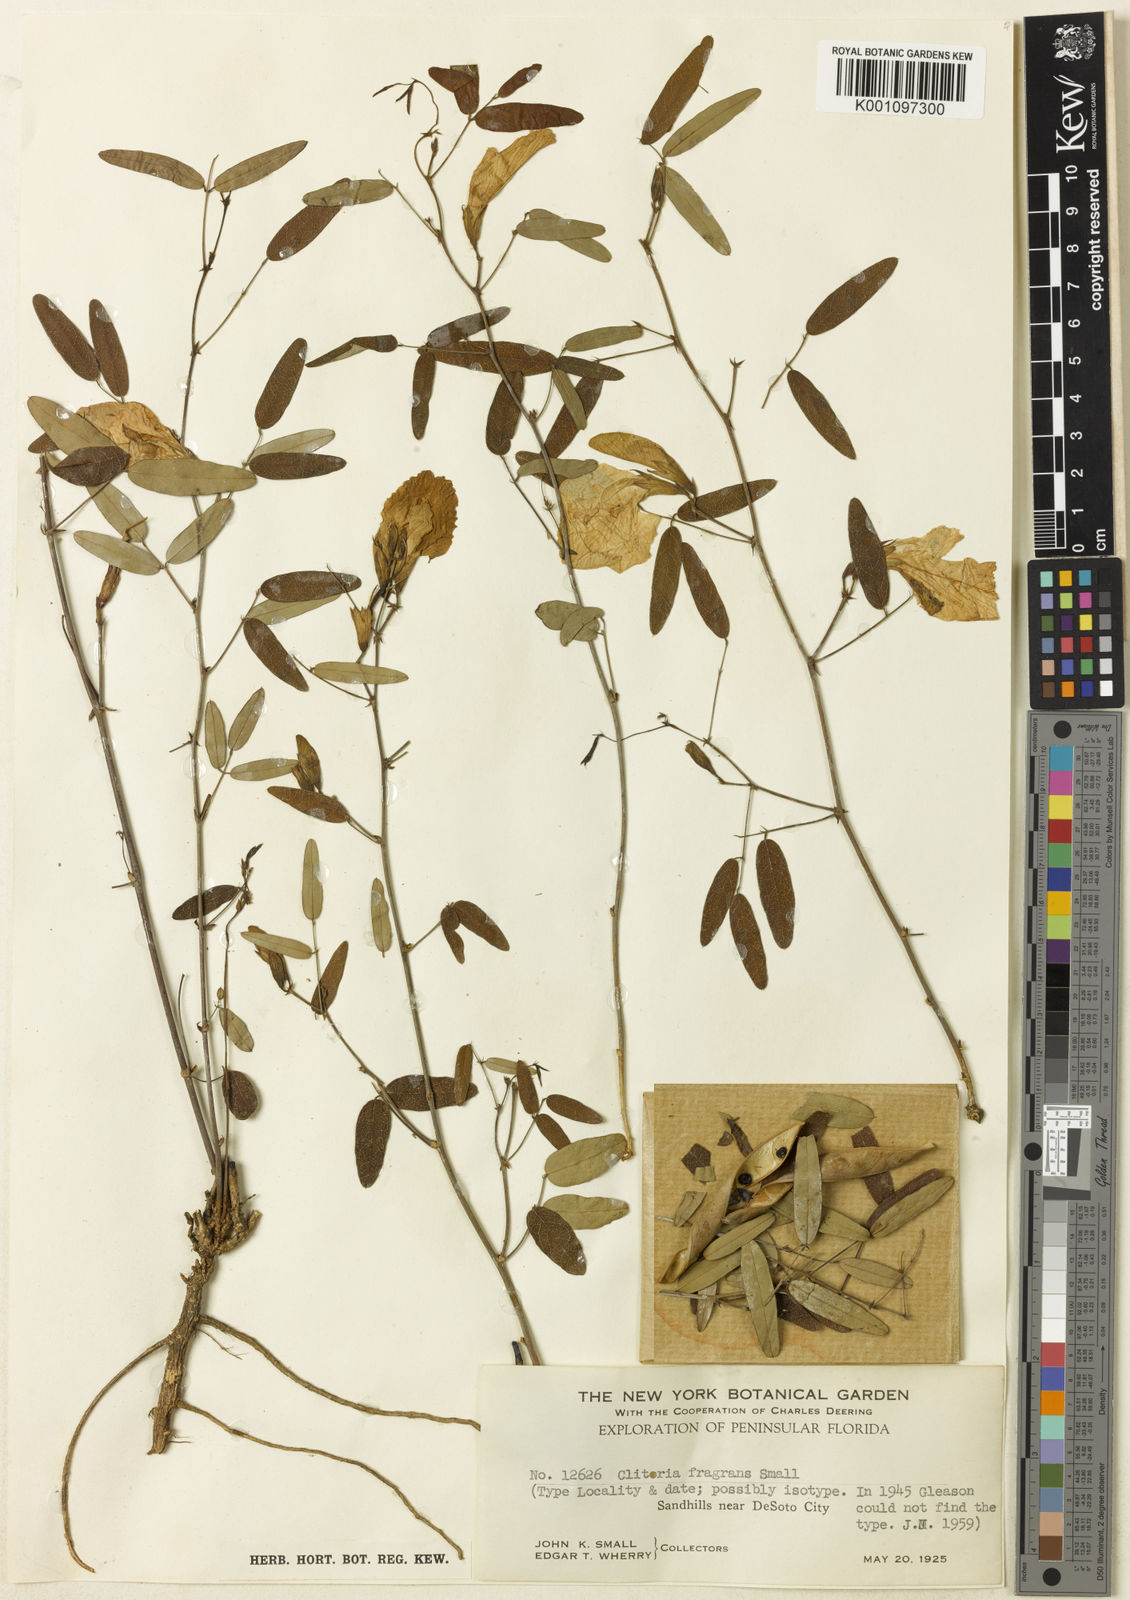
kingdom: Plantae
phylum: Tracheophyta
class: Magnoliopsida
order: Fabales
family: Fabaceae
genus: Clitoria
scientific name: Clitoria fragrans
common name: Pigeon-wings
